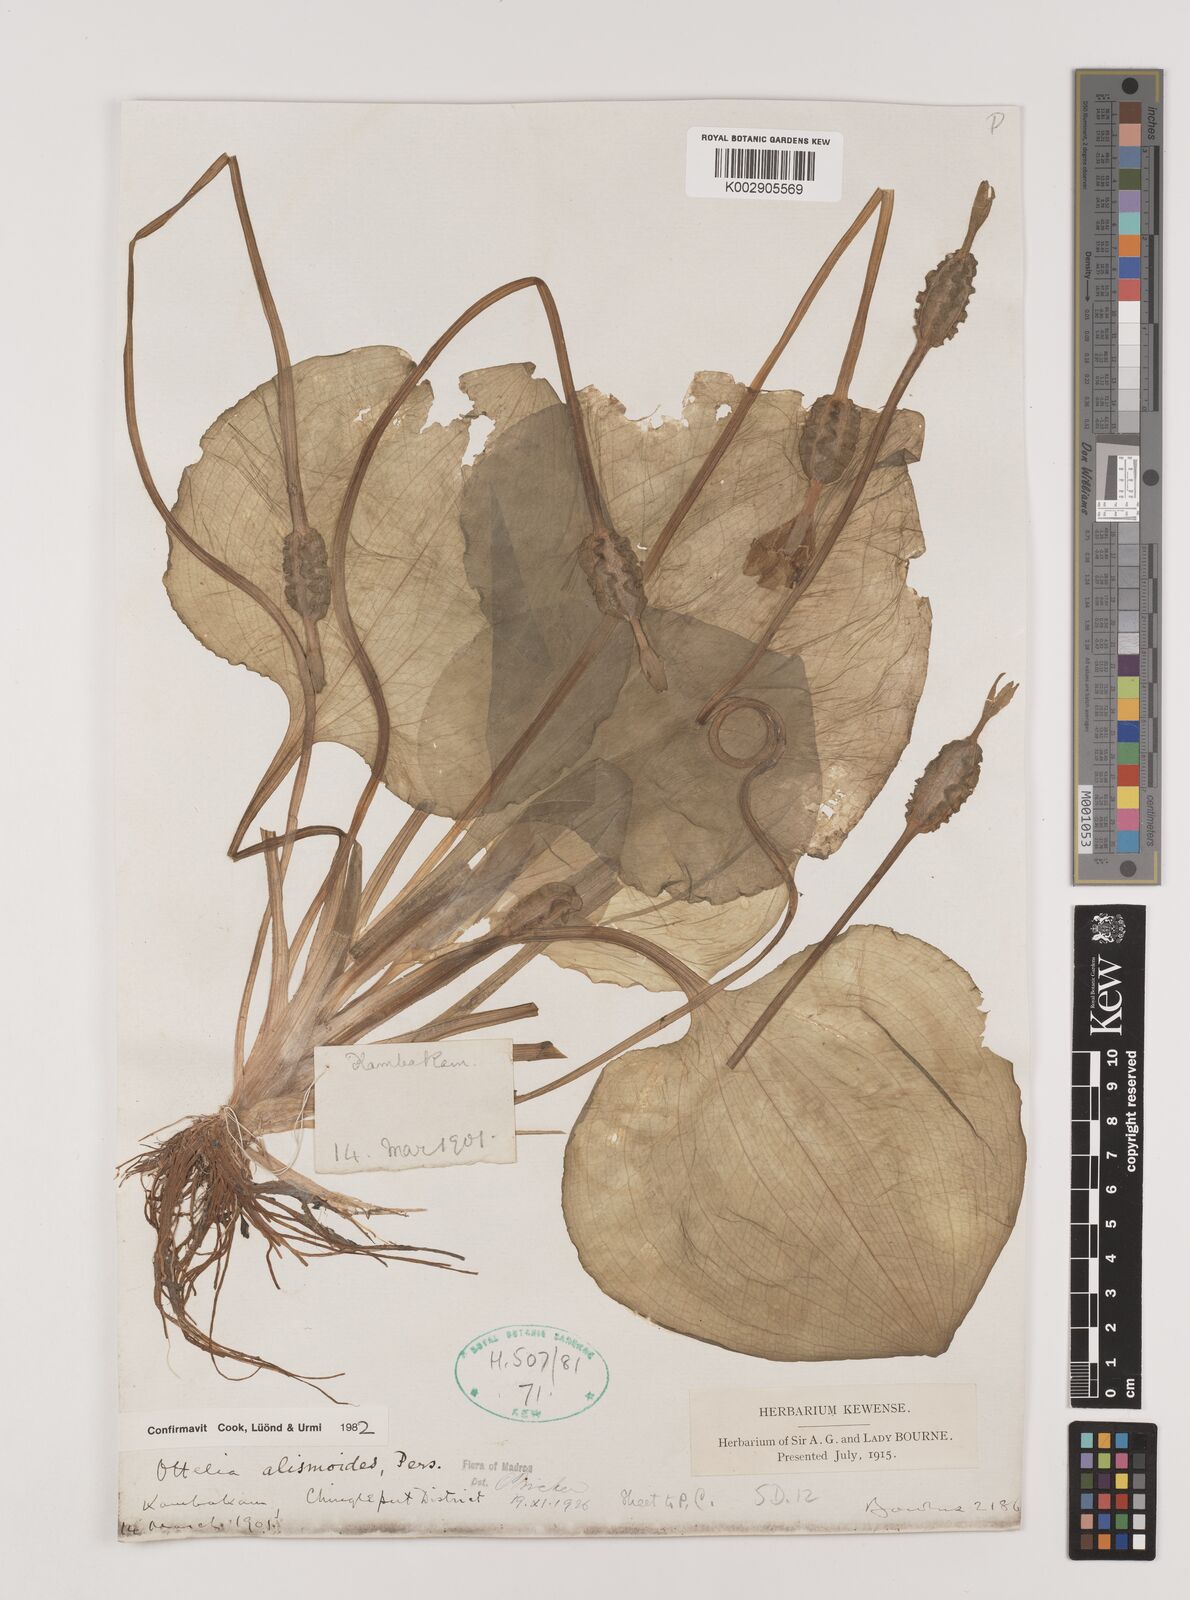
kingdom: Plantae
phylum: Tracheophyta
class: Liliopsida
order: Alismatales
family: Hydrocharitaceae
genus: Ottelia
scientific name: Ottelia alismoides
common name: Duck-lettuce
